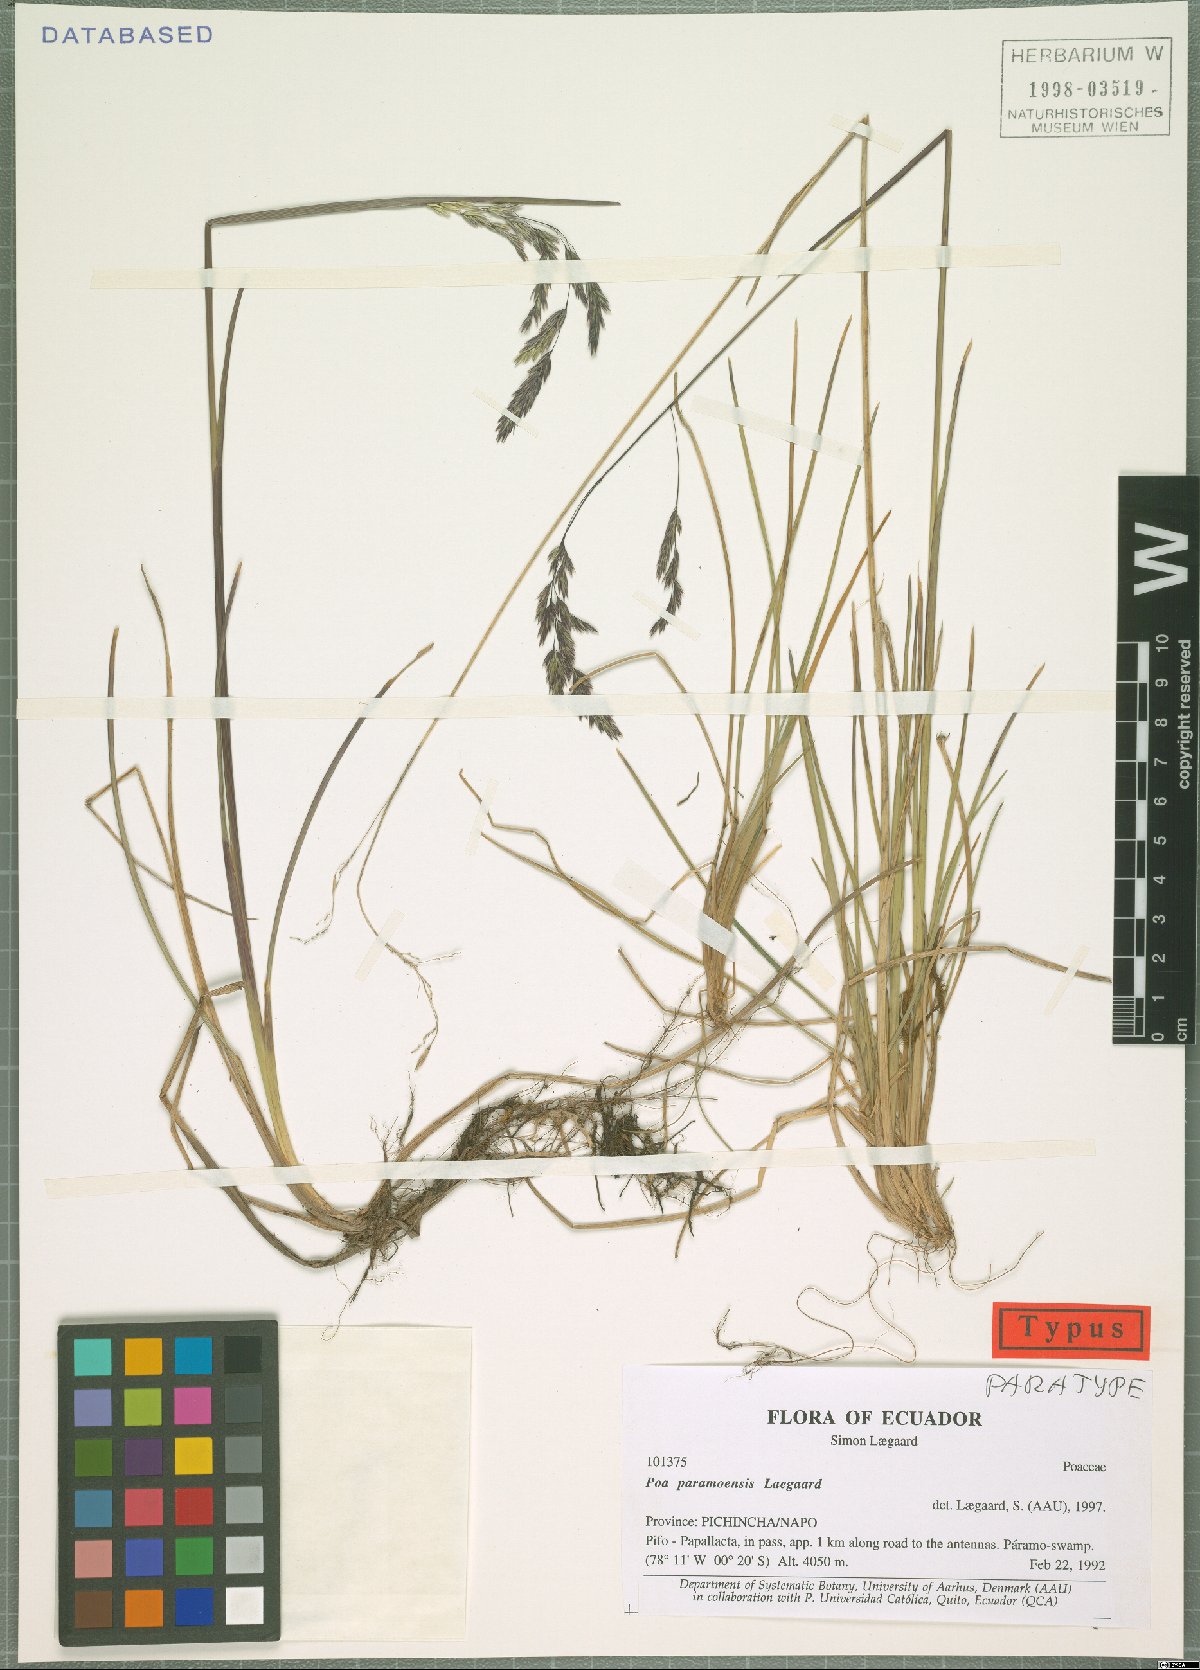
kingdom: Plantae
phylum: Tracheophyta
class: Liliopsida
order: Poales
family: Poaceae
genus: Poa
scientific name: Poa huancavelicae
